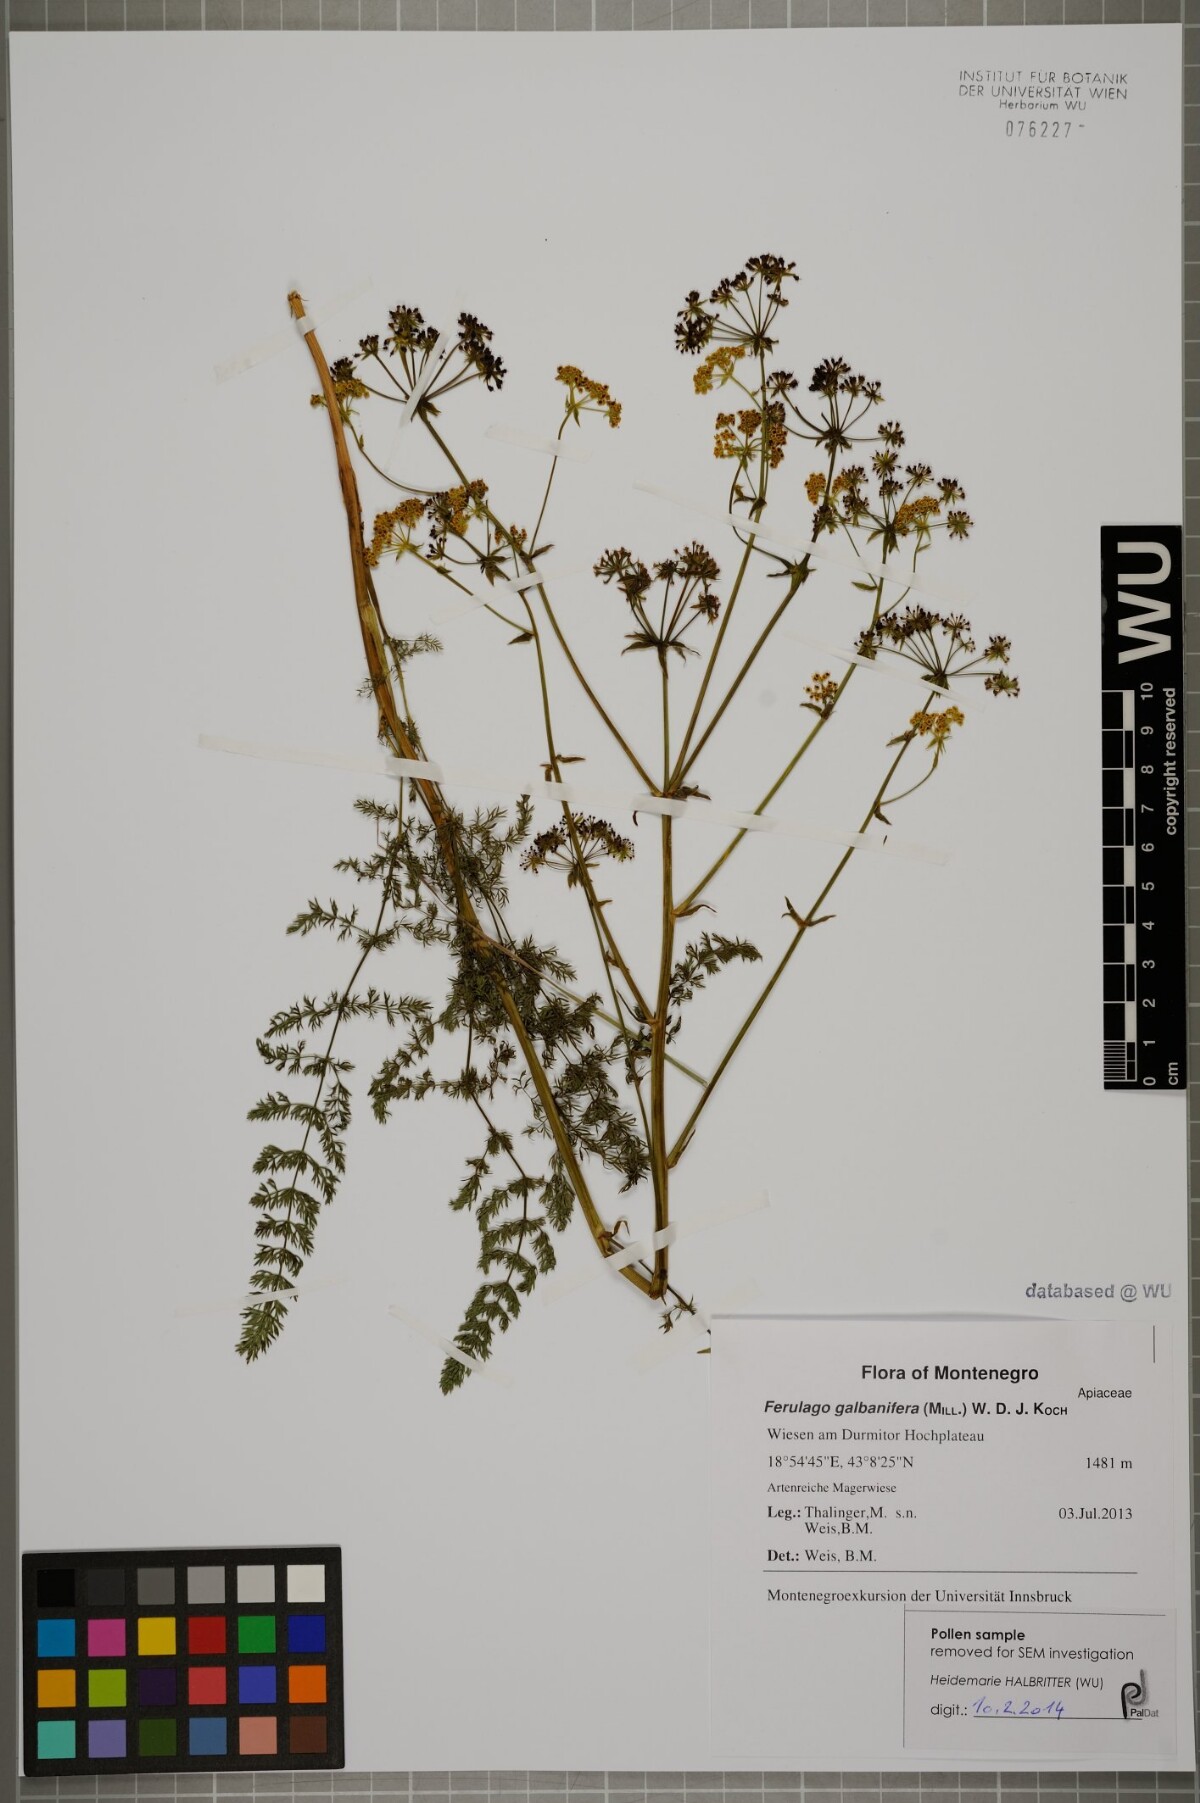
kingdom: Plantae
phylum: Tracheophyta
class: Magnoliopsida
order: Apiales
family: Apiaceae
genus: Ferulago
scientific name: Ferulago galbanifera
